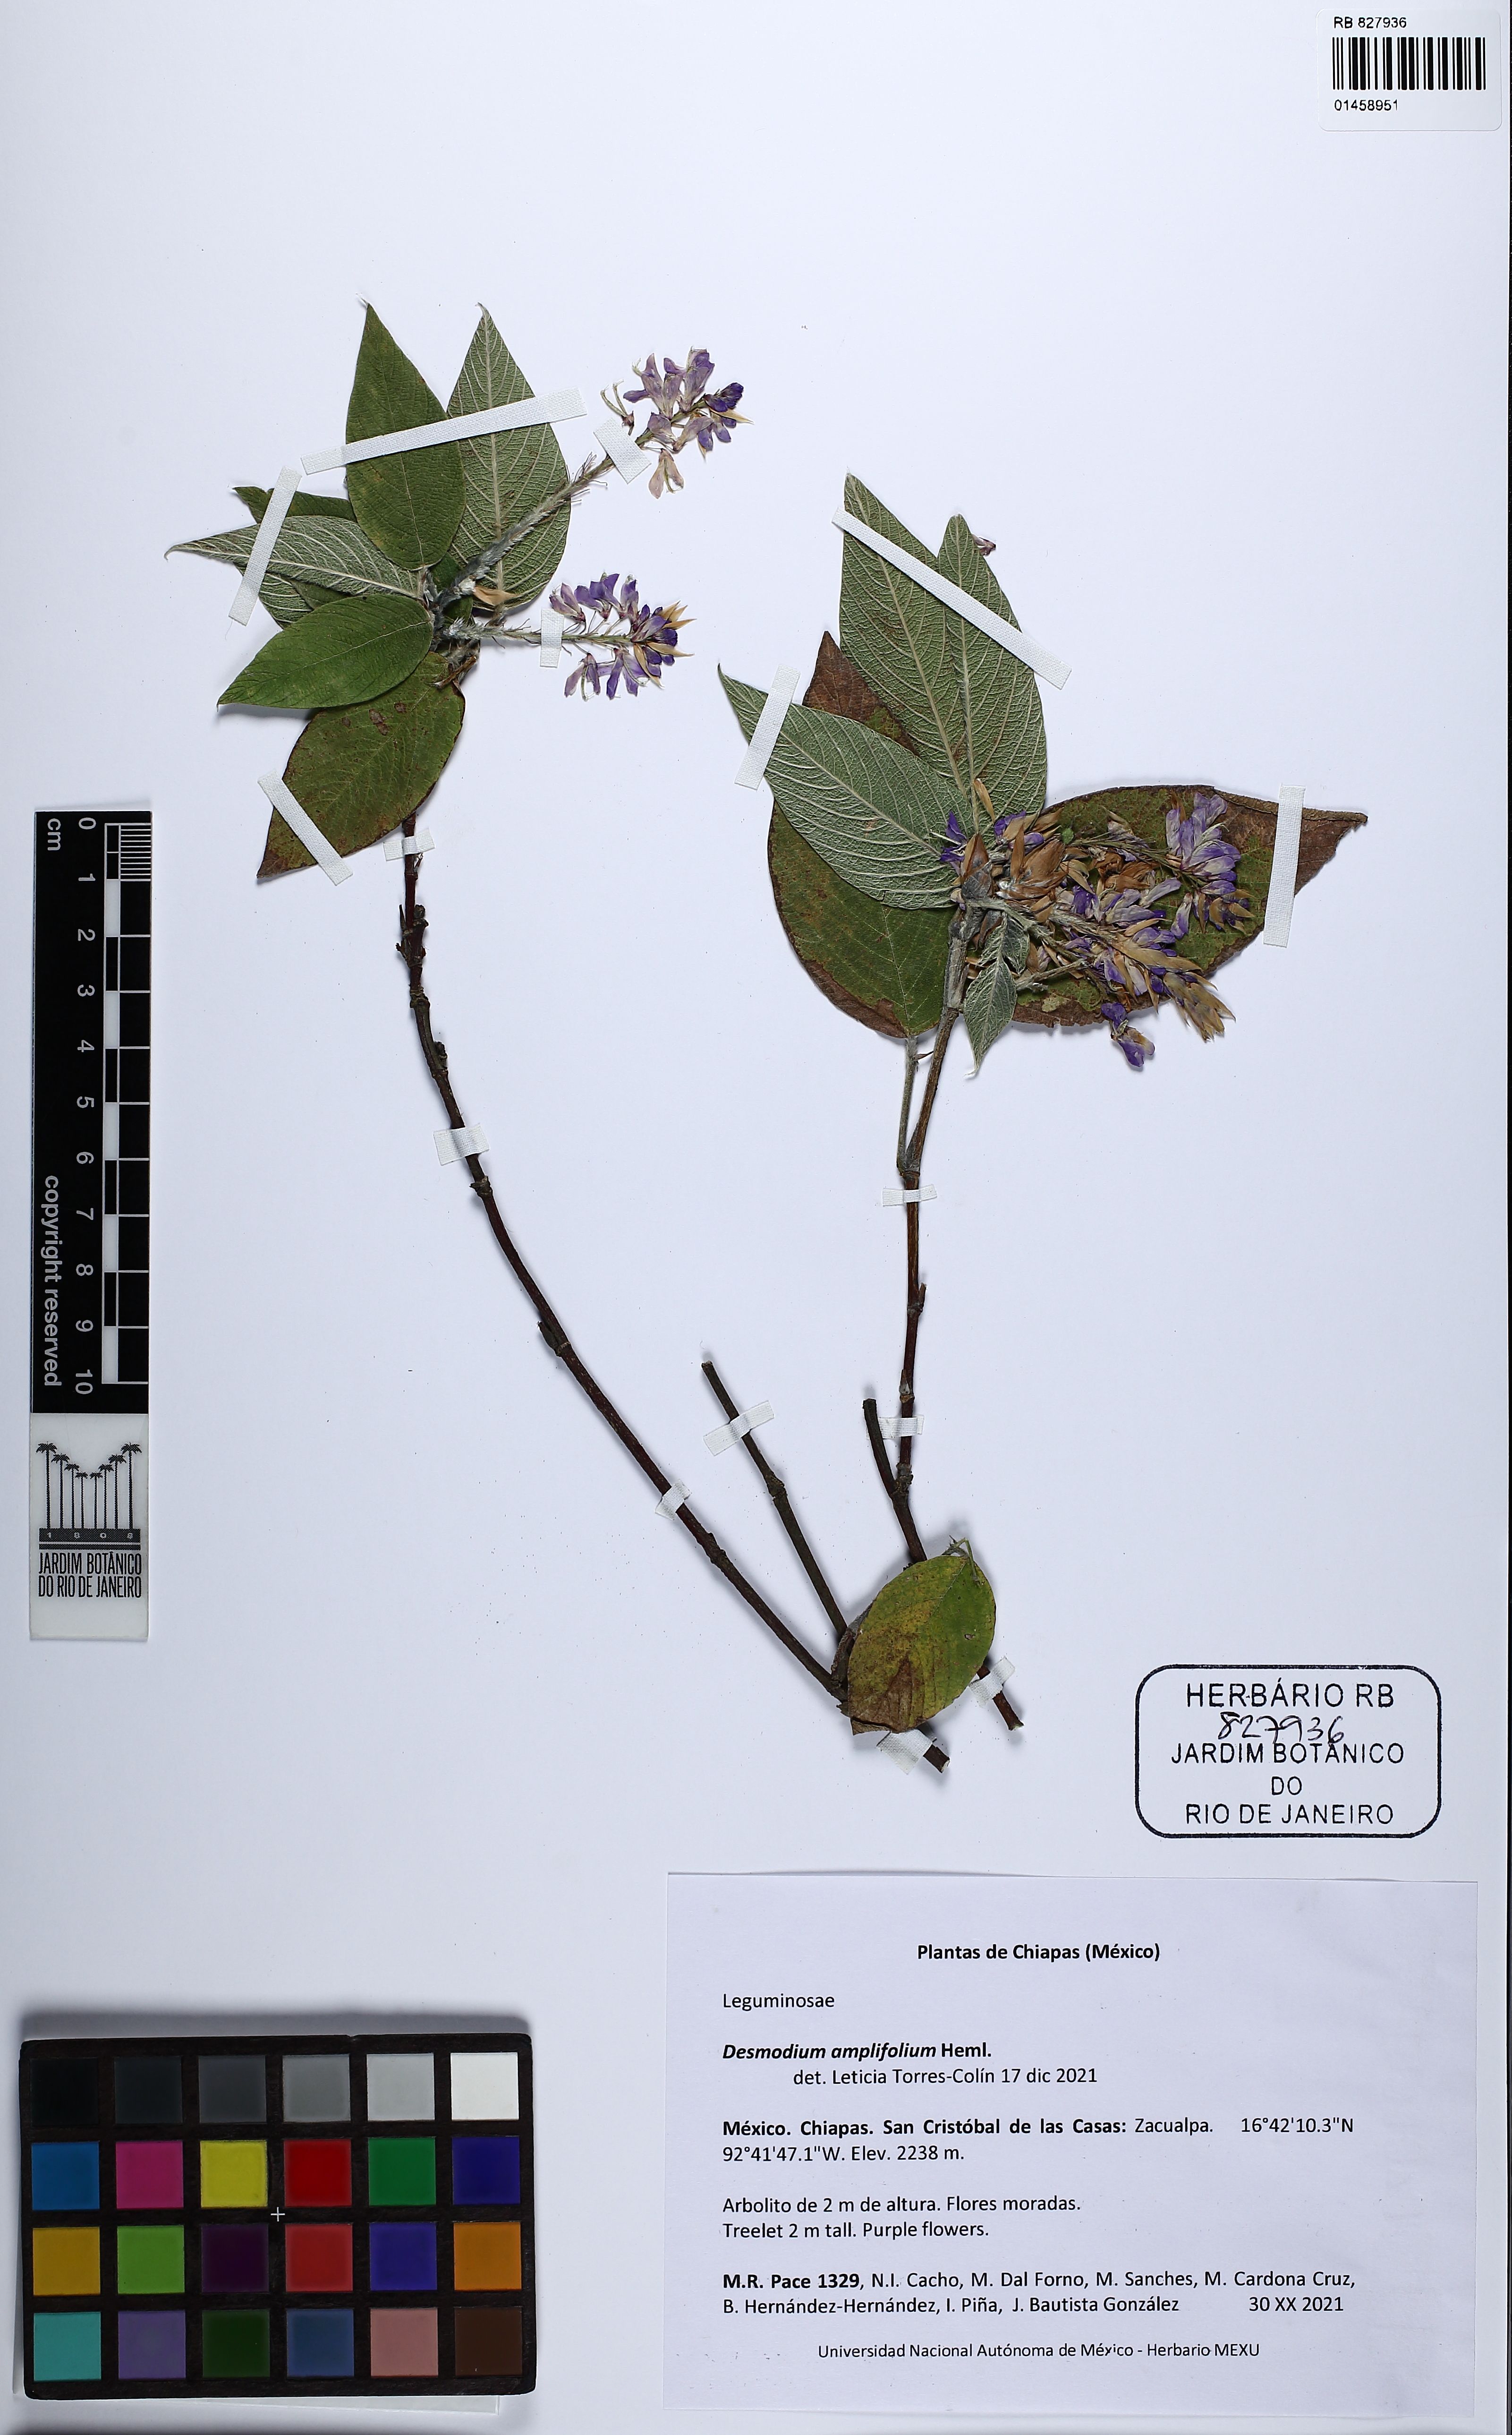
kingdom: Plantae
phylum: Tracheophyta
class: Magnoliopsida
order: Fabales
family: Fabaceae
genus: Desmodium
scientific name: Desmodium amplifolium
